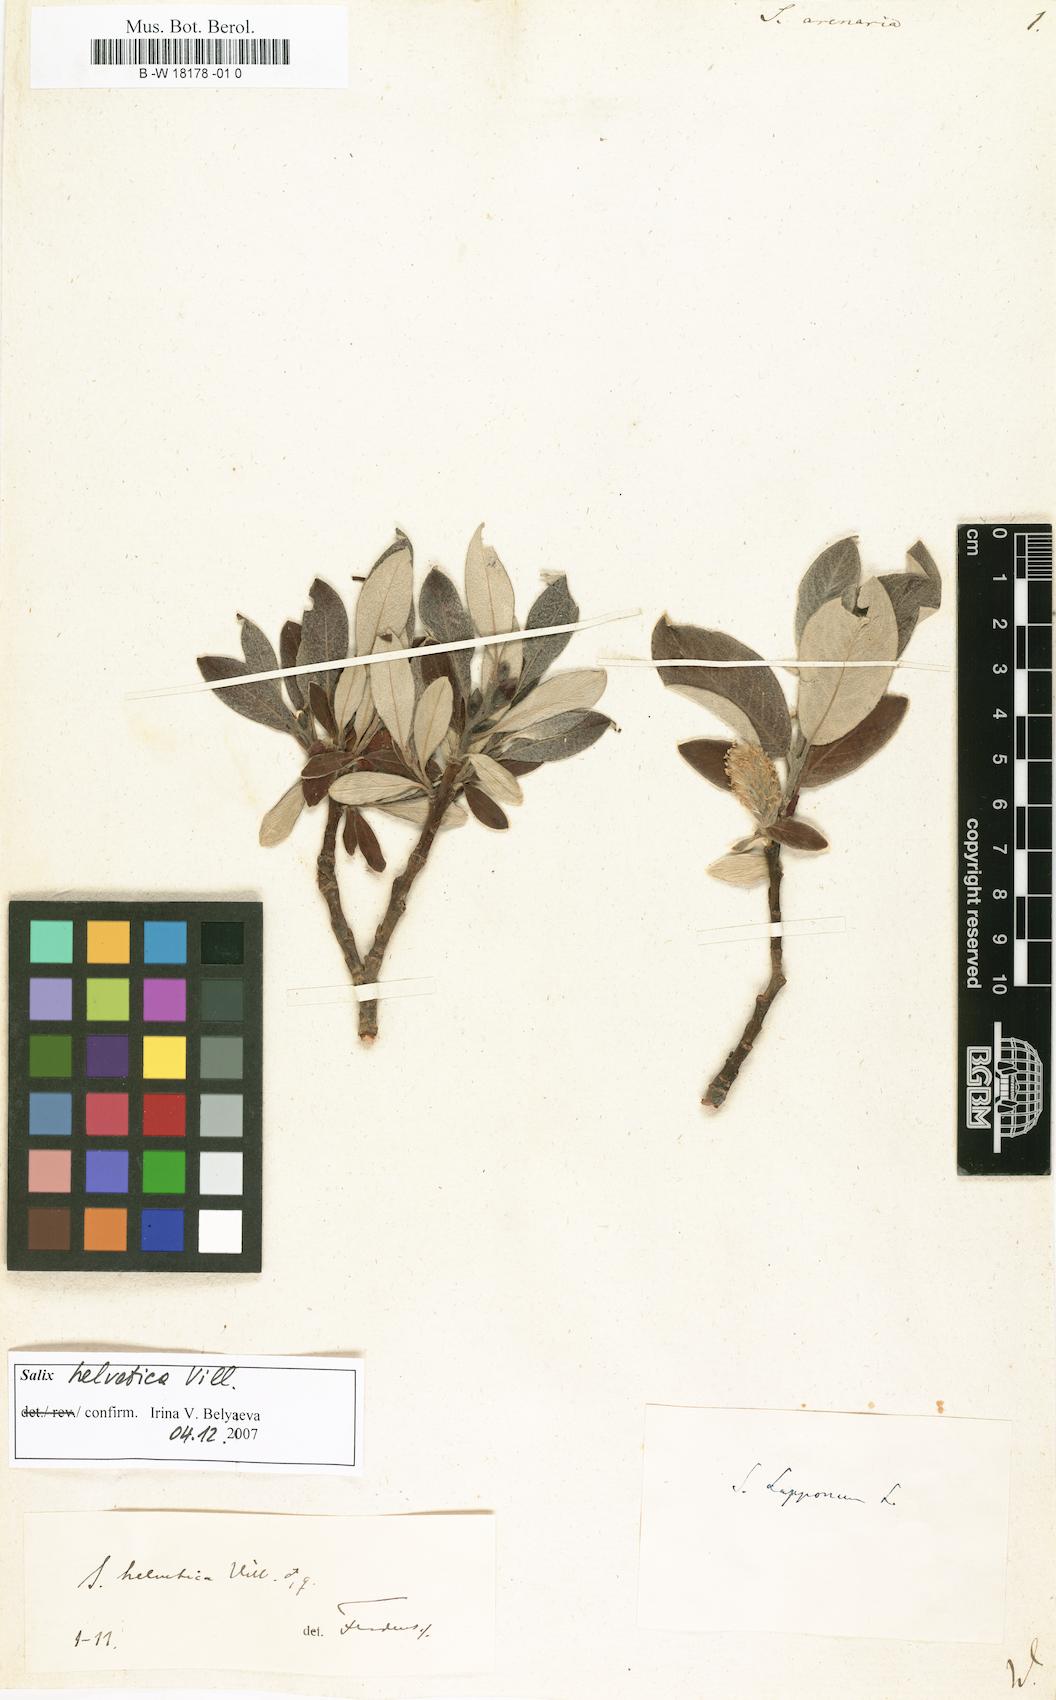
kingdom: Plantae
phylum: Tracheophyta
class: Magnoliopsida
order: Malpighiales
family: Salicaceae
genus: Salix
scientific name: Salix repens
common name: Creeping willow
